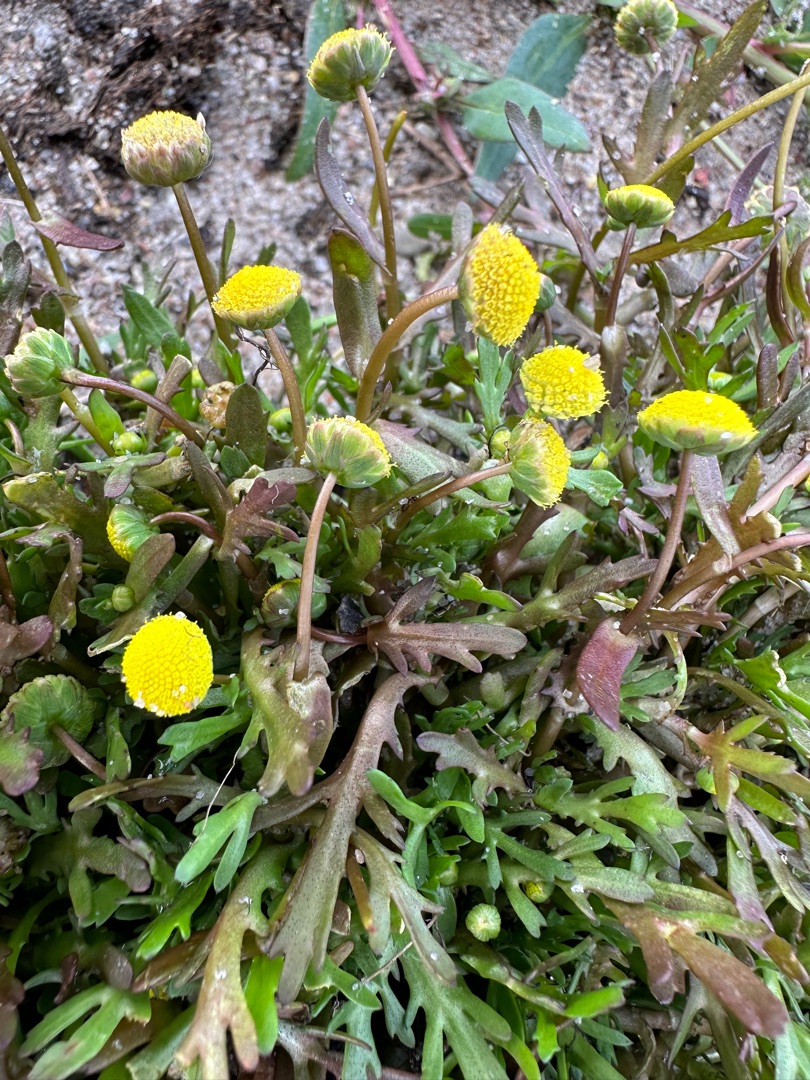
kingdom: Plantae
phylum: Tracheophyta
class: Magnoliopsida
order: Asterales
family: Asteraceae
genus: Cotula
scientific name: Cotula coronopifolia
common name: Firkløft
